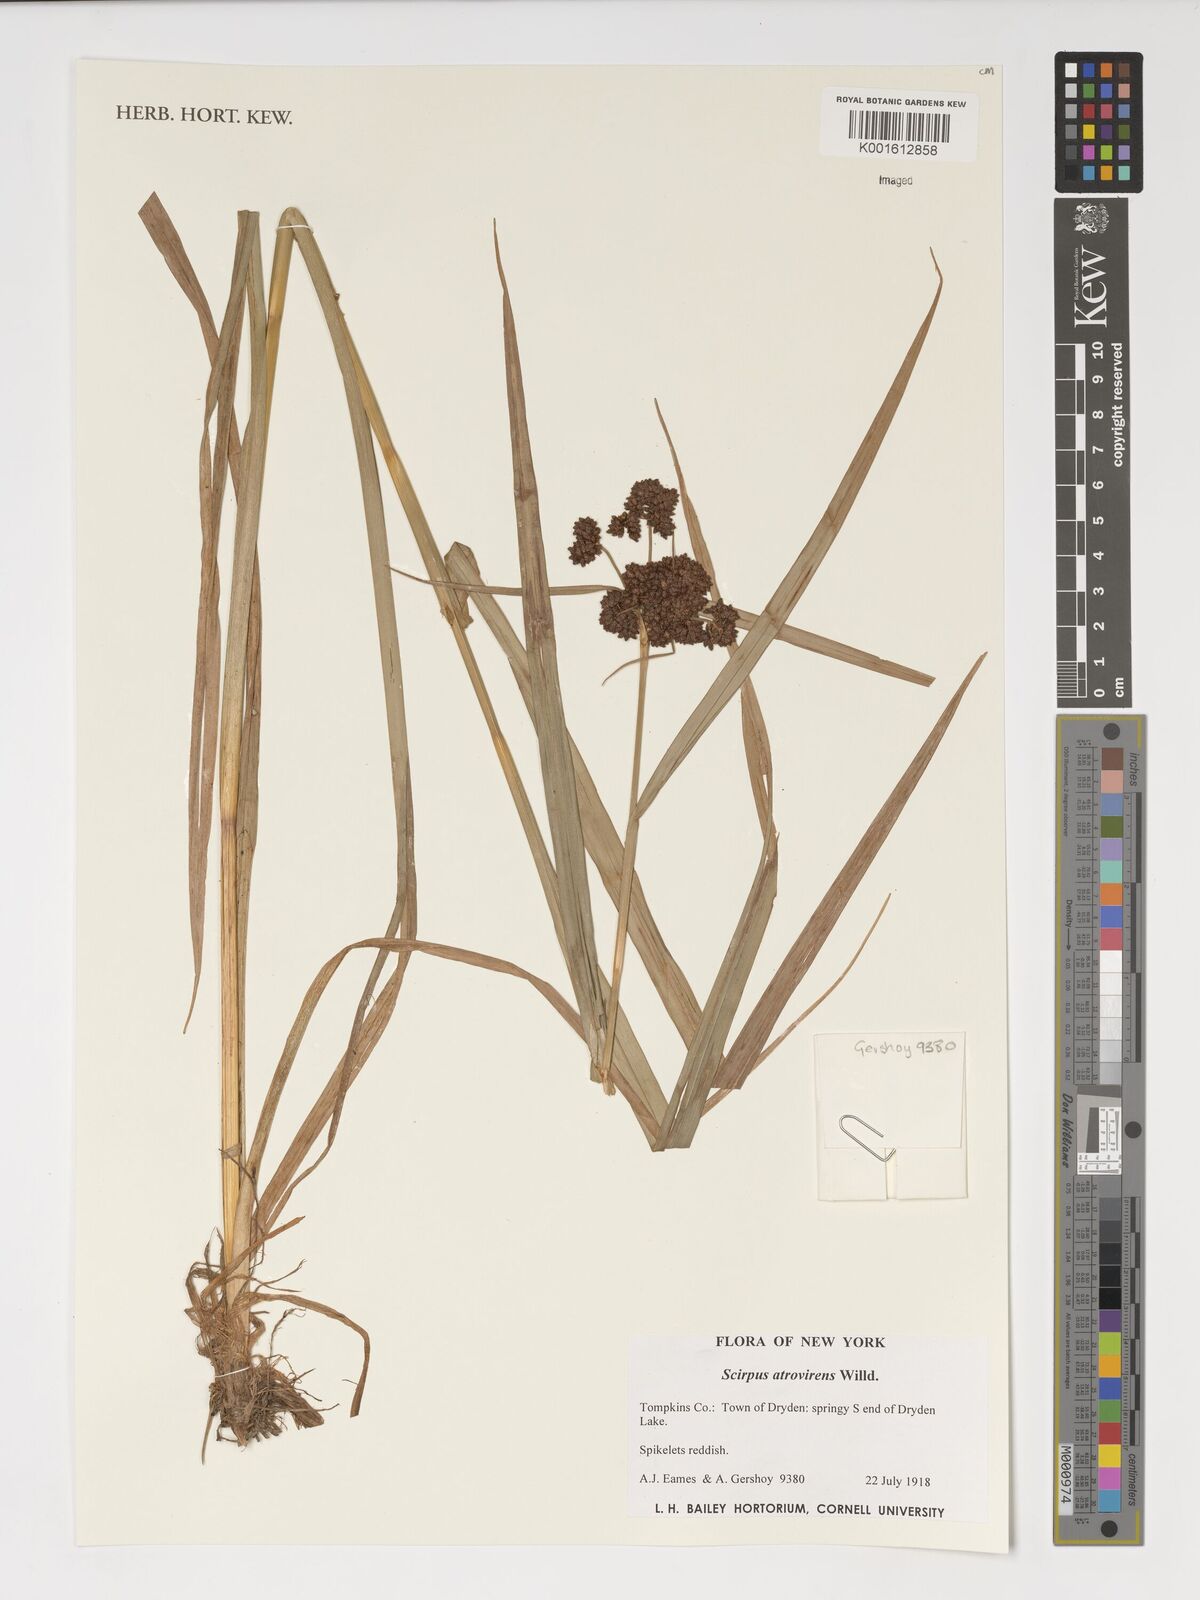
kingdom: Plantae
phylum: Tracheophyta
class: Liliopsida
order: Poales
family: Cyperaceae
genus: Scirpus
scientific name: Scirpus atrovirens
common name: Black bulrush
